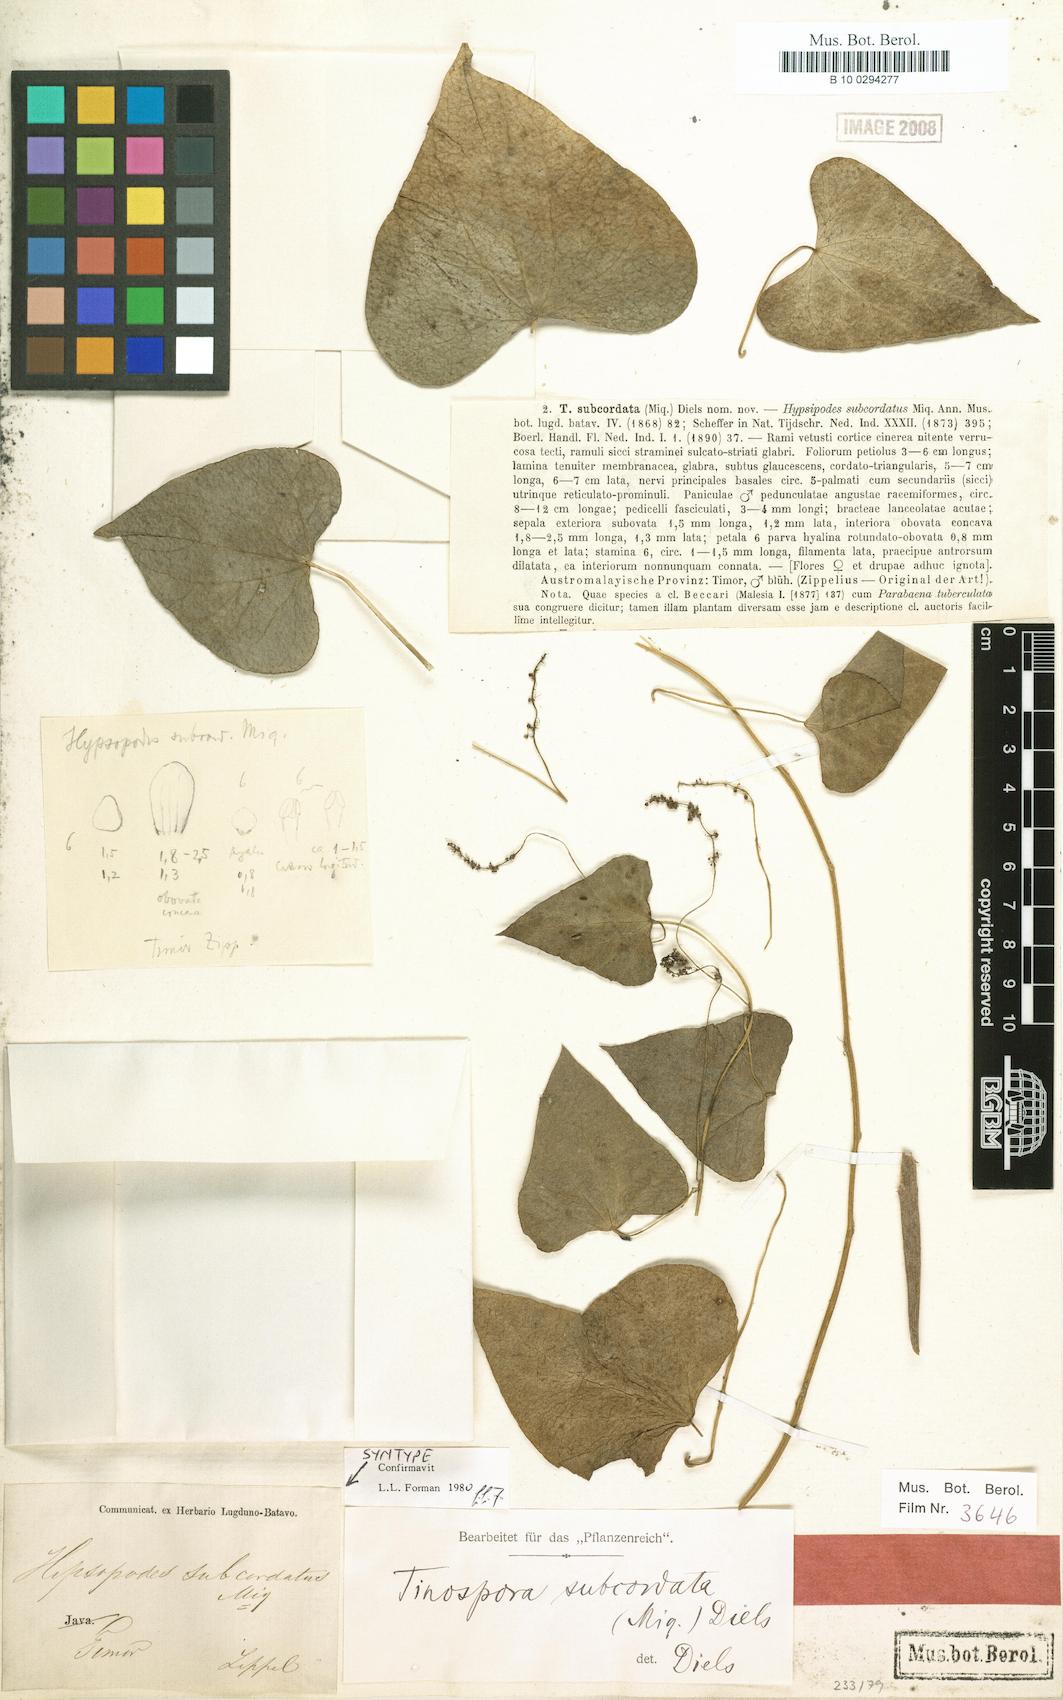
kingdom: Plantae
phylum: Tracheophyta
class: Magnoliopsida
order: Ranunculales
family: Menispermaceae
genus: Tinospora
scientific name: Tinospora subcordata
